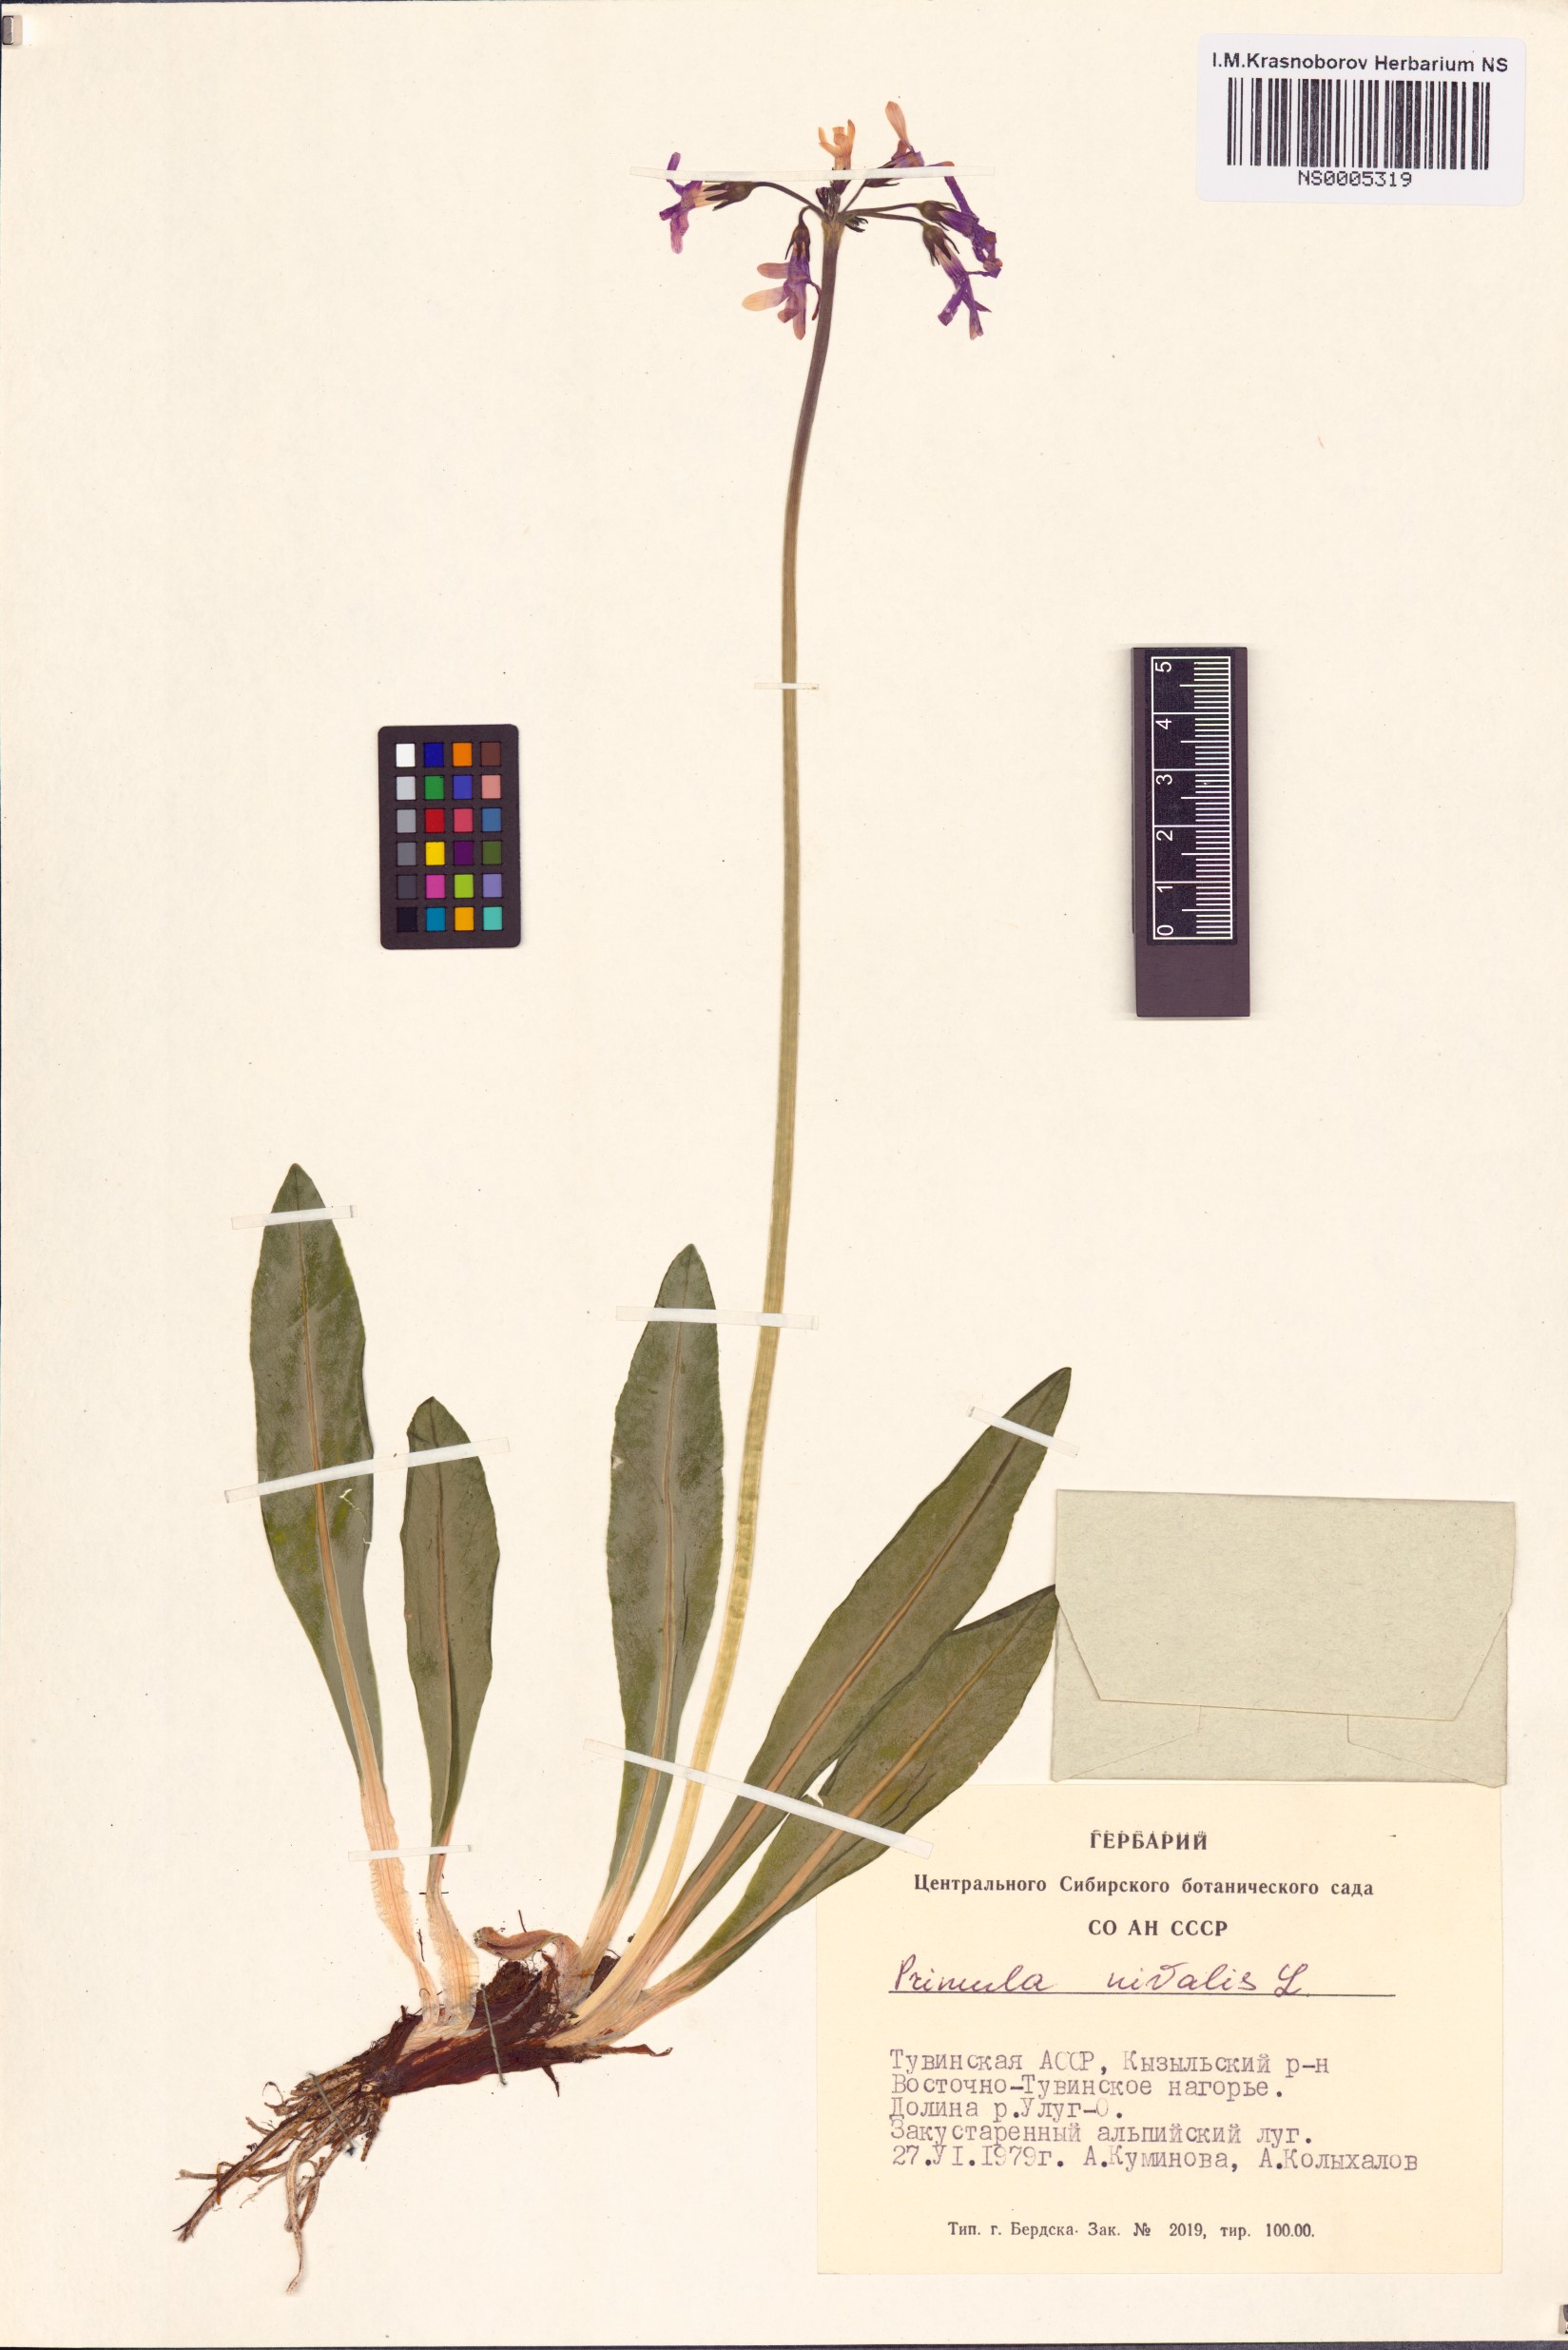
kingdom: Plantae
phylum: Tracheophyta
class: Magnoliopsida
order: Ericales
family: Primulaceae
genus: Primula
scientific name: Primula nivalis
